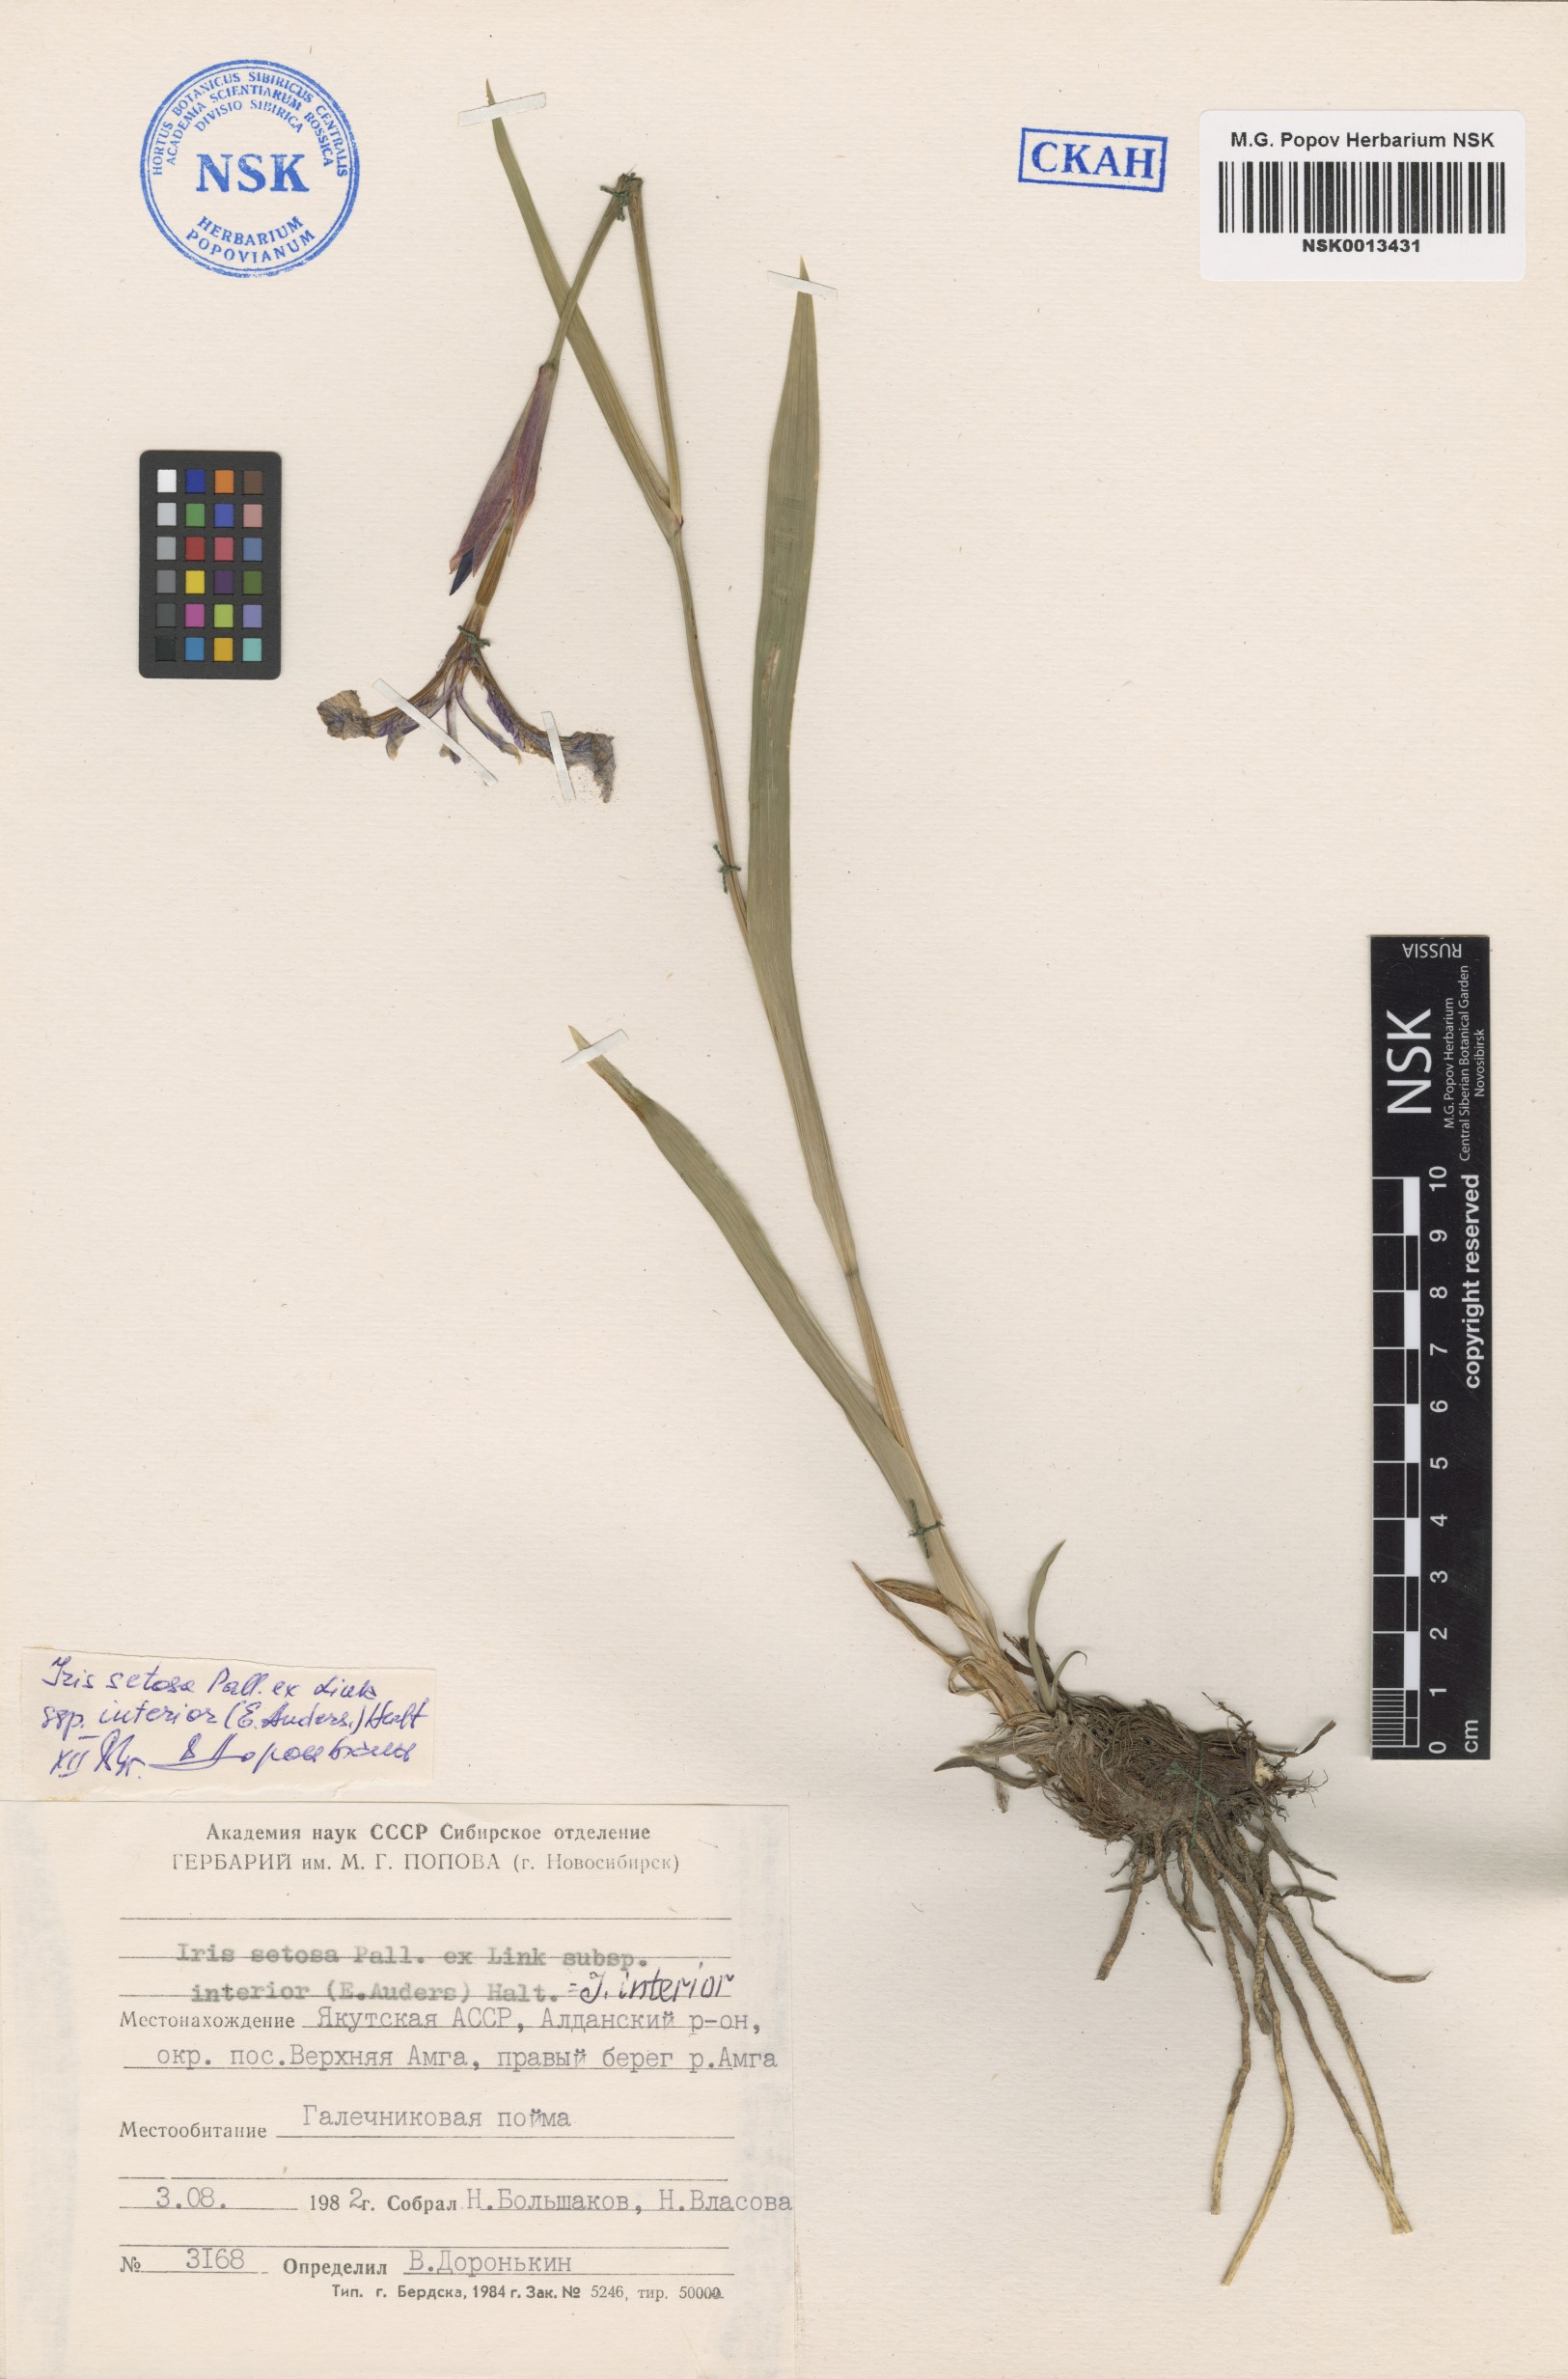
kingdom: Plantae
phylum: Tracheophyta
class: Liliopsida
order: Asparagales
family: Iridaceae
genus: Iris
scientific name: Iris setosa
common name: Arctic blue flag
